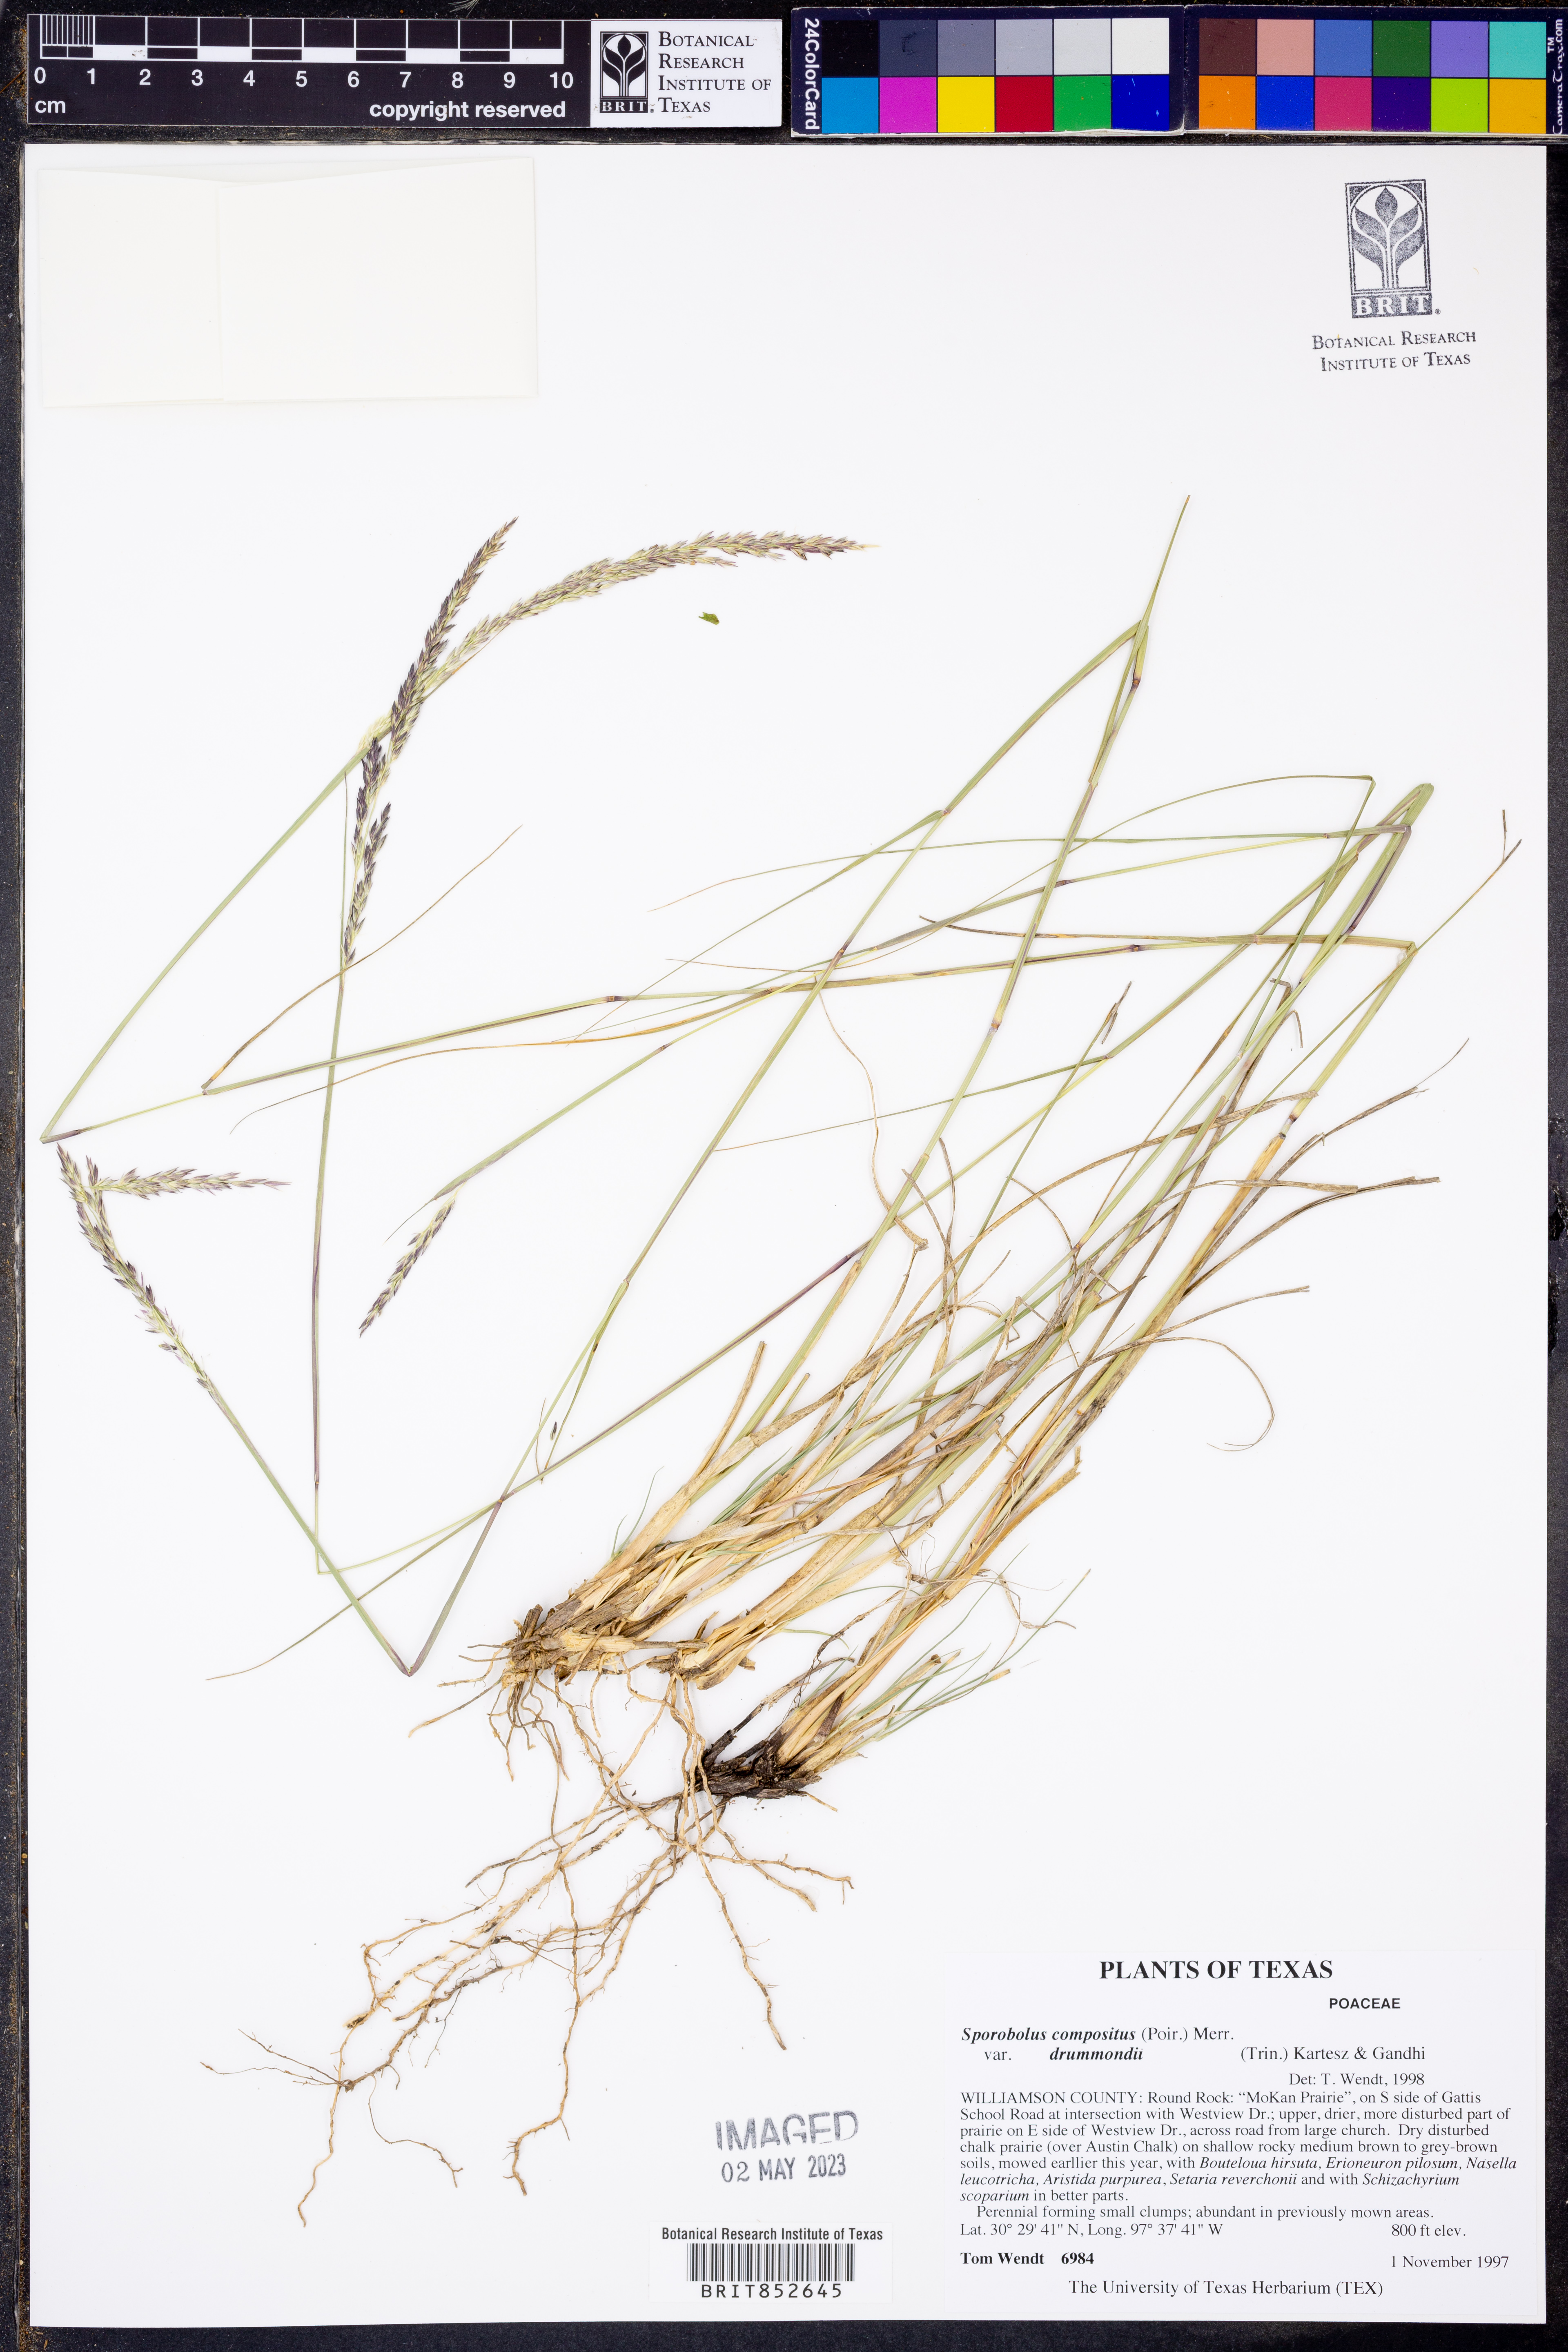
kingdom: Plantae
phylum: Tracheophyta
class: Liliopsida
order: Poales
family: Poaceae
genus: Sporobolus
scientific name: Sporobolus compositus
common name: Rough dropseed
